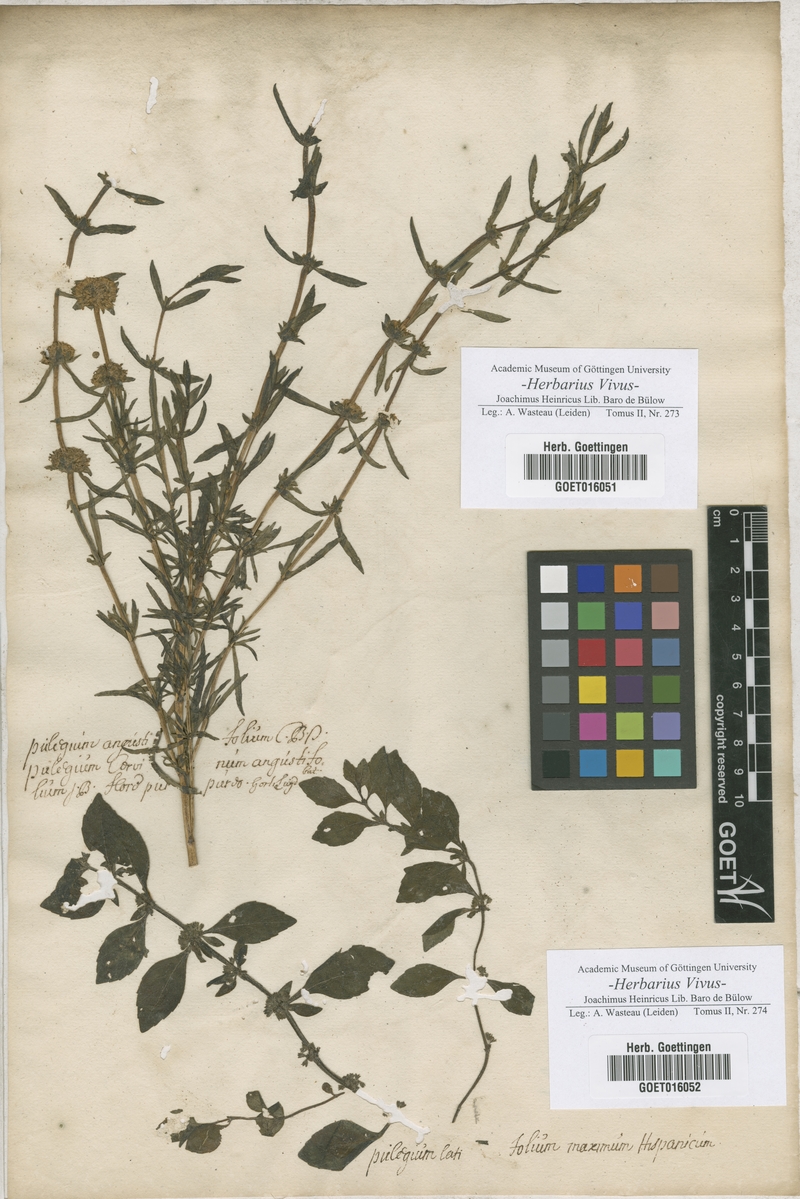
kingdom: Plantae
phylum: Tracheophyta
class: Magnoliopsida
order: Lamiales
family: Lamiaceae
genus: Mentha
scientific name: Mentha cervina
